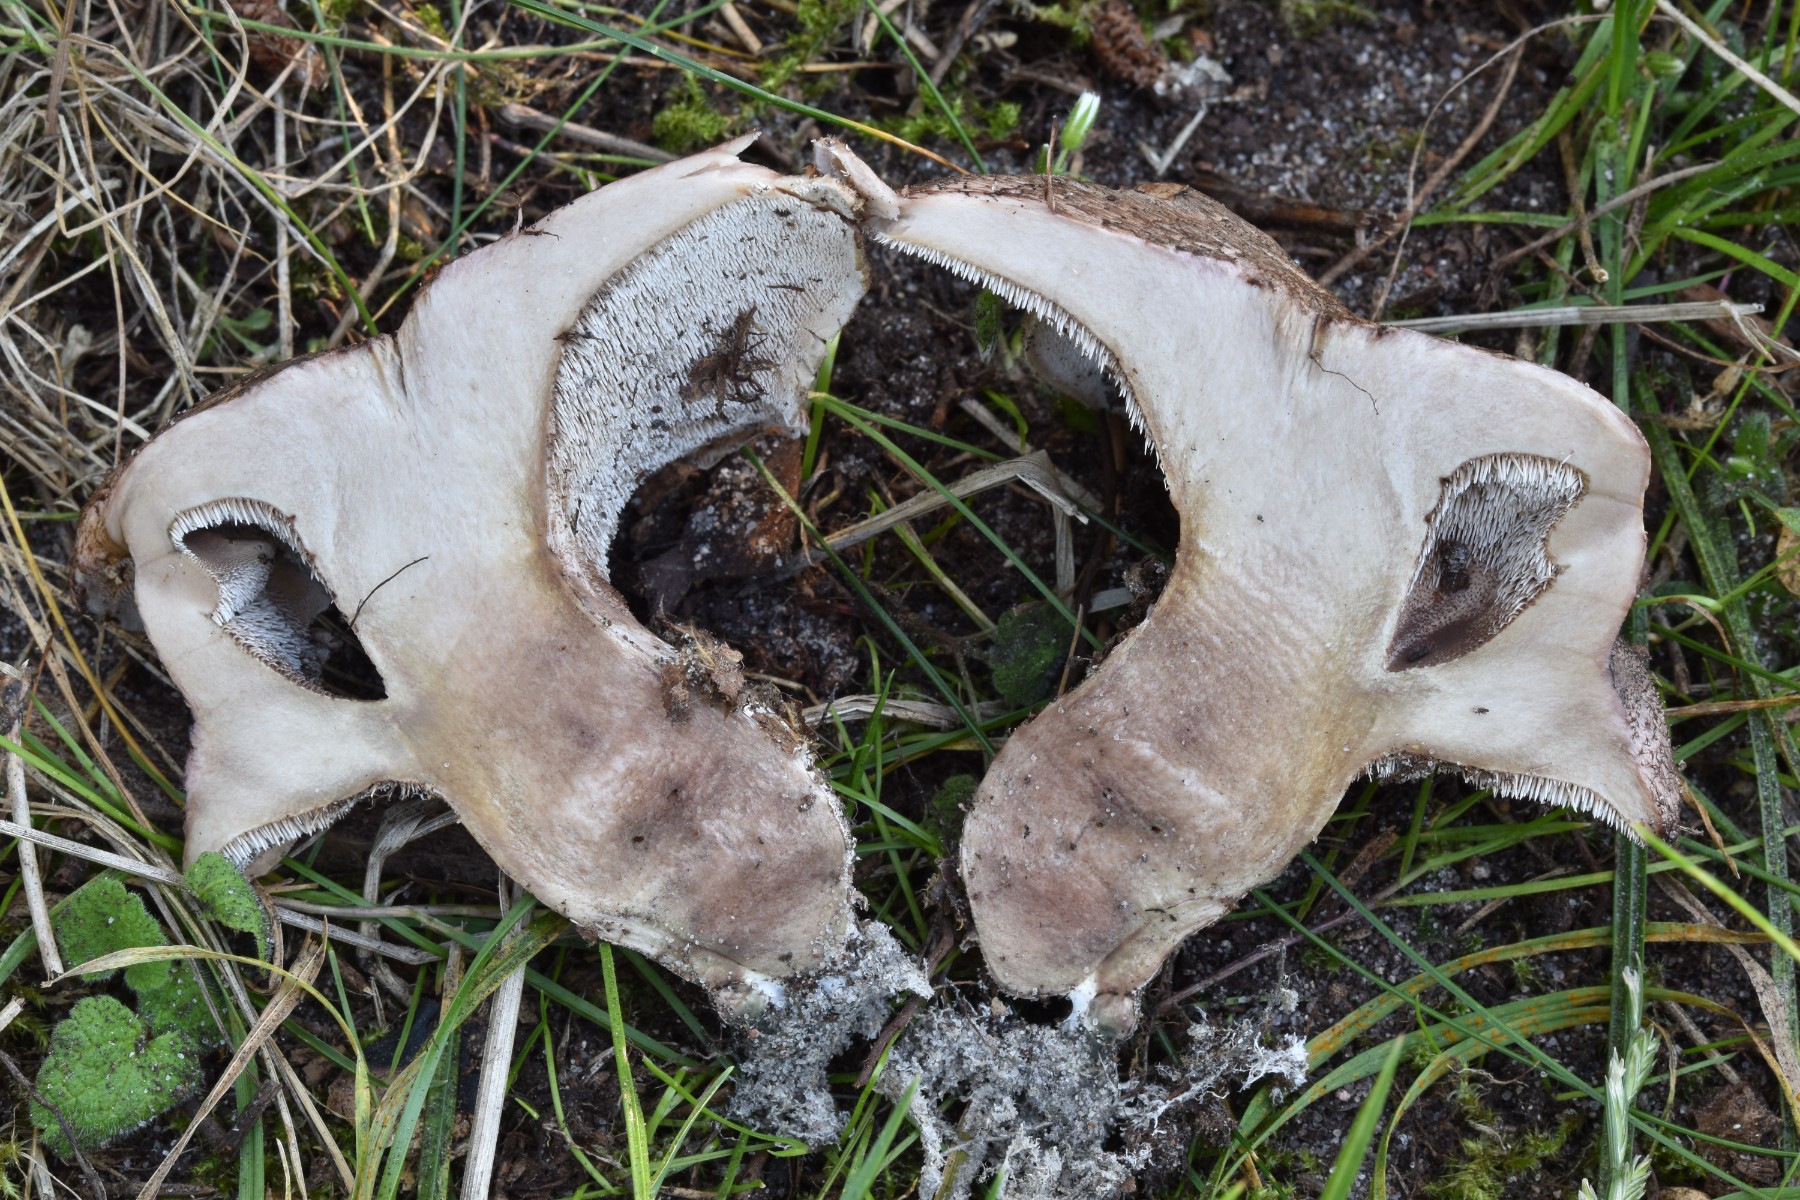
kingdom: Fungi
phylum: Basidiomycota
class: Agaricomycetes
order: Thelephorales
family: Bankeraceae
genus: Hydnellum
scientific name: Hydnellum lepidum
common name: skrænt-korkpigsvamp
